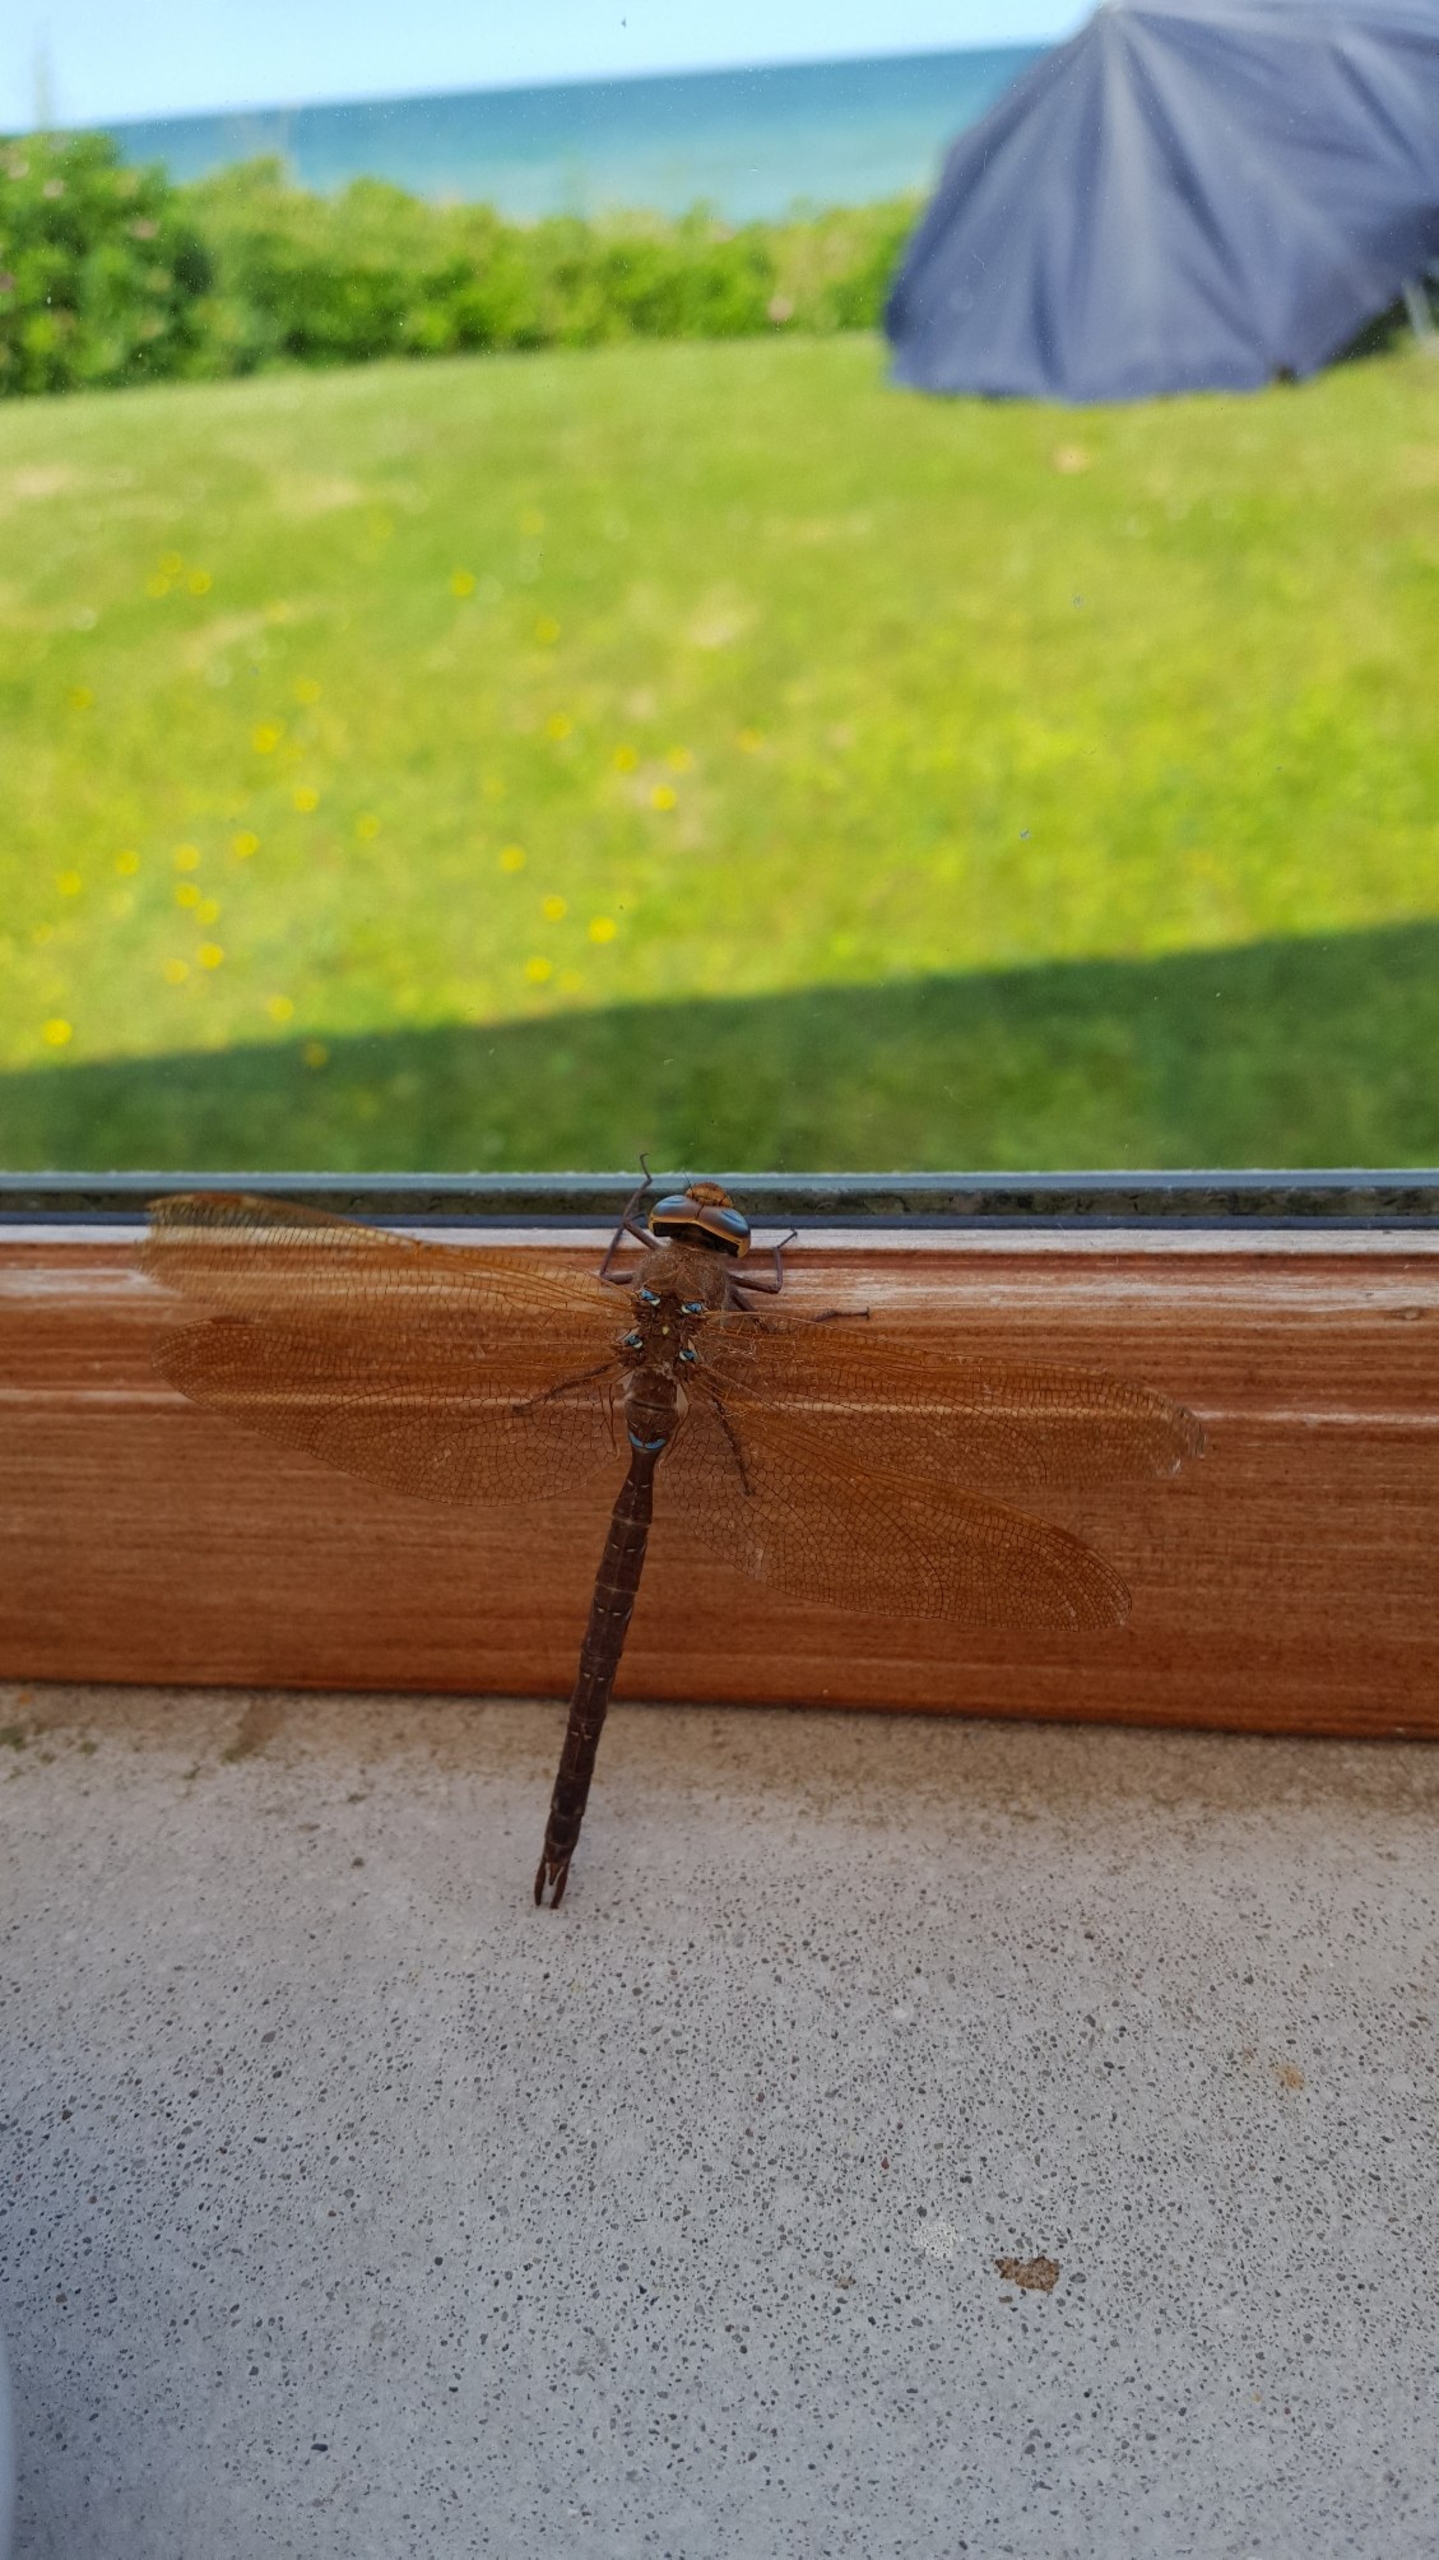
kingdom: Animalia
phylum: Arthropoda
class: Insecta
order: Odonata
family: Aeshnidae
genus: Aeshna
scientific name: Aeshna grandis
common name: Brun mosaikguldsmed
